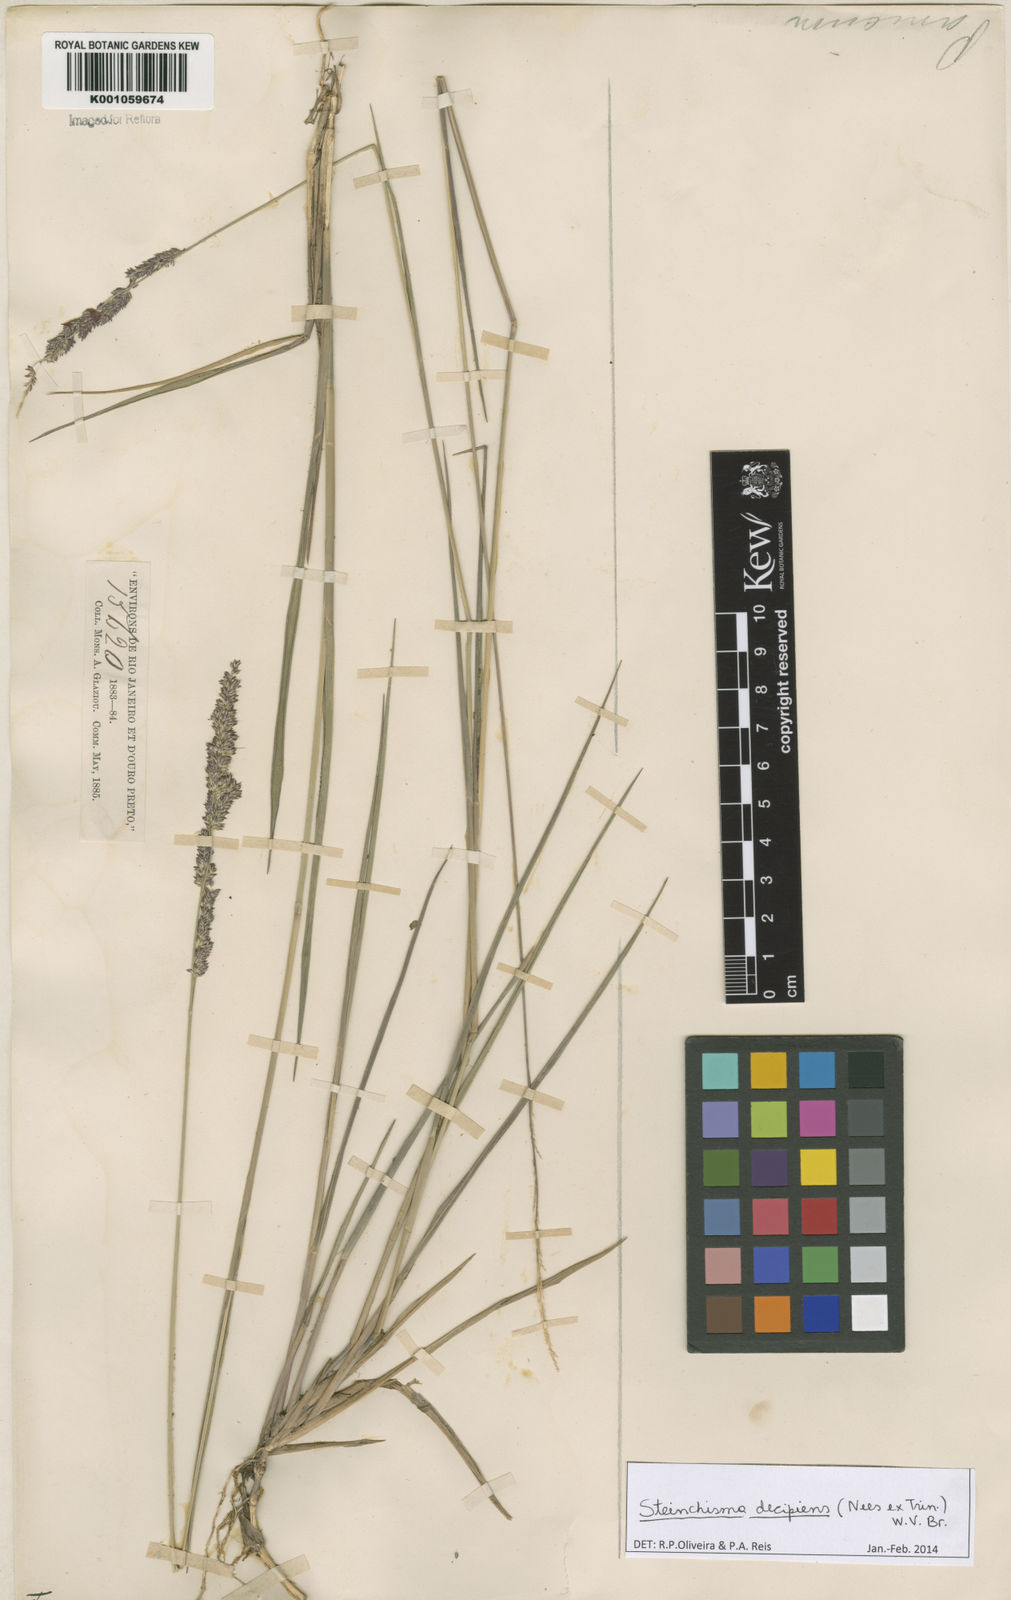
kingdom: Plantae
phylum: Tracheophyta
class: Liliopsida
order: Poales
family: Poaceae
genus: Steinchisma
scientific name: Steinchisma decipiens
